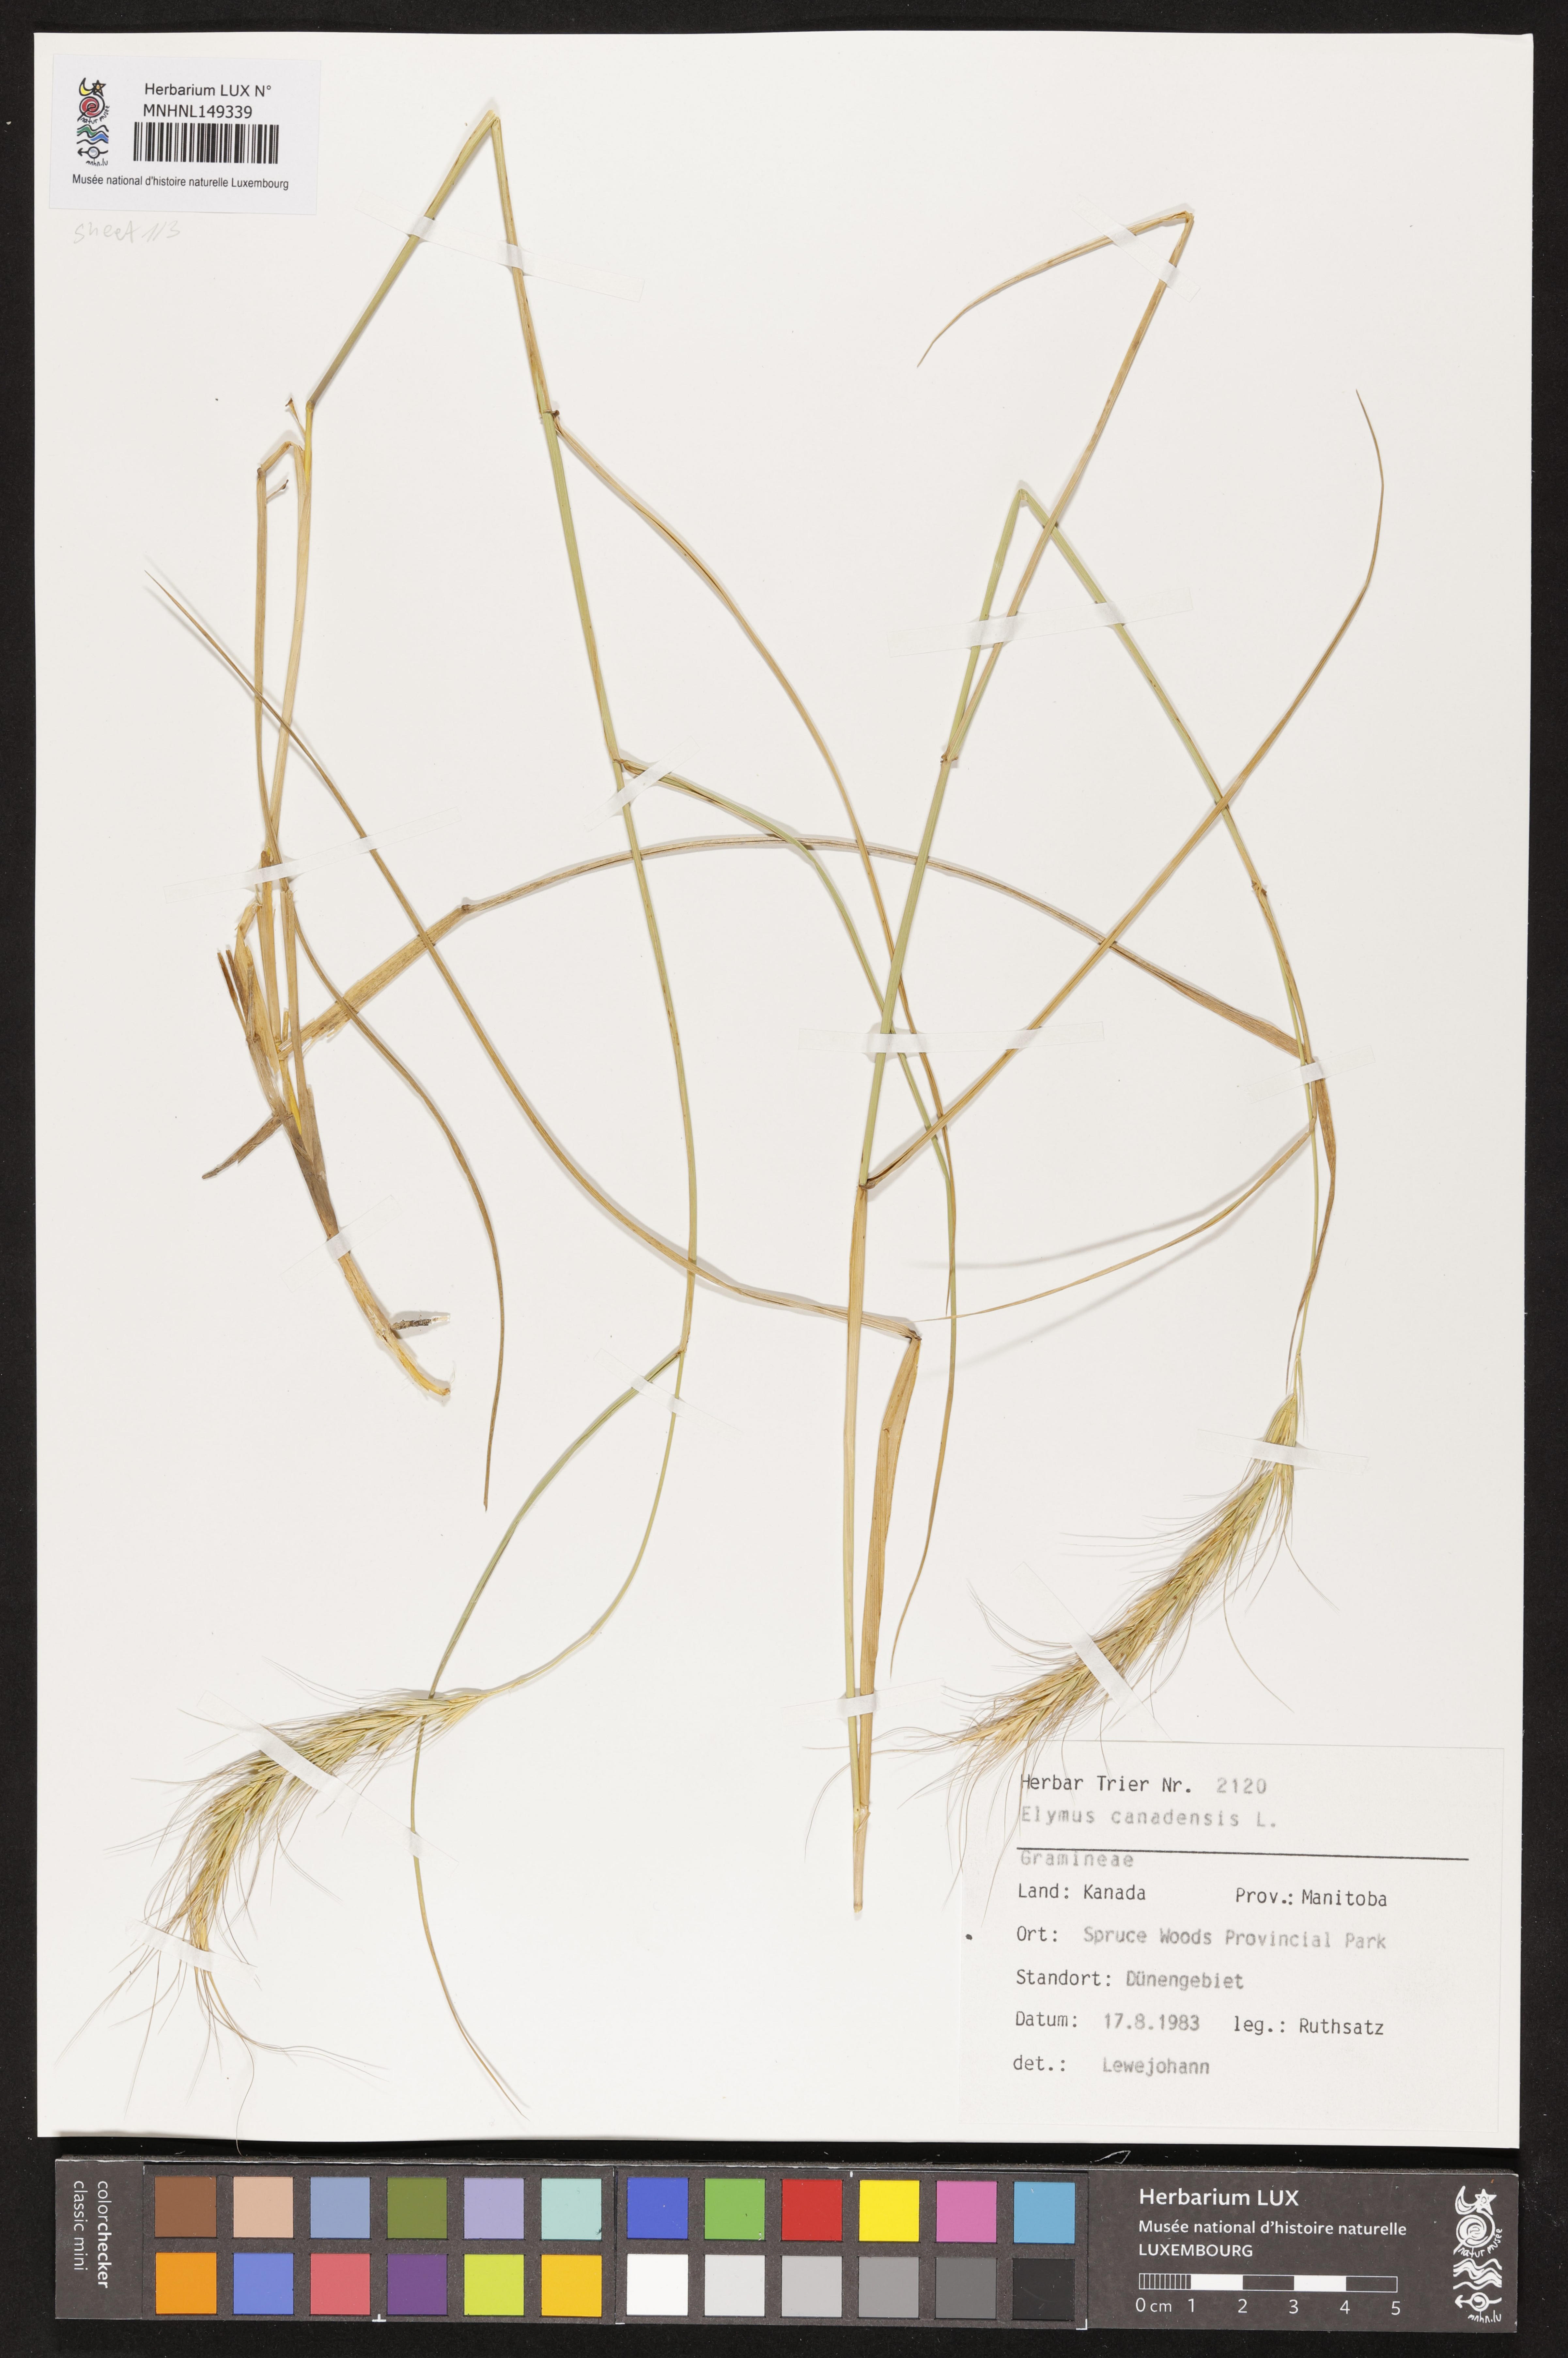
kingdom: Plantae
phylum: Tracheophyta
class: Liliopsida
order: Poales
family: Poaceae
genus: Elymus
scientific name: Elymus canadensis
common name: Canada wild rye
